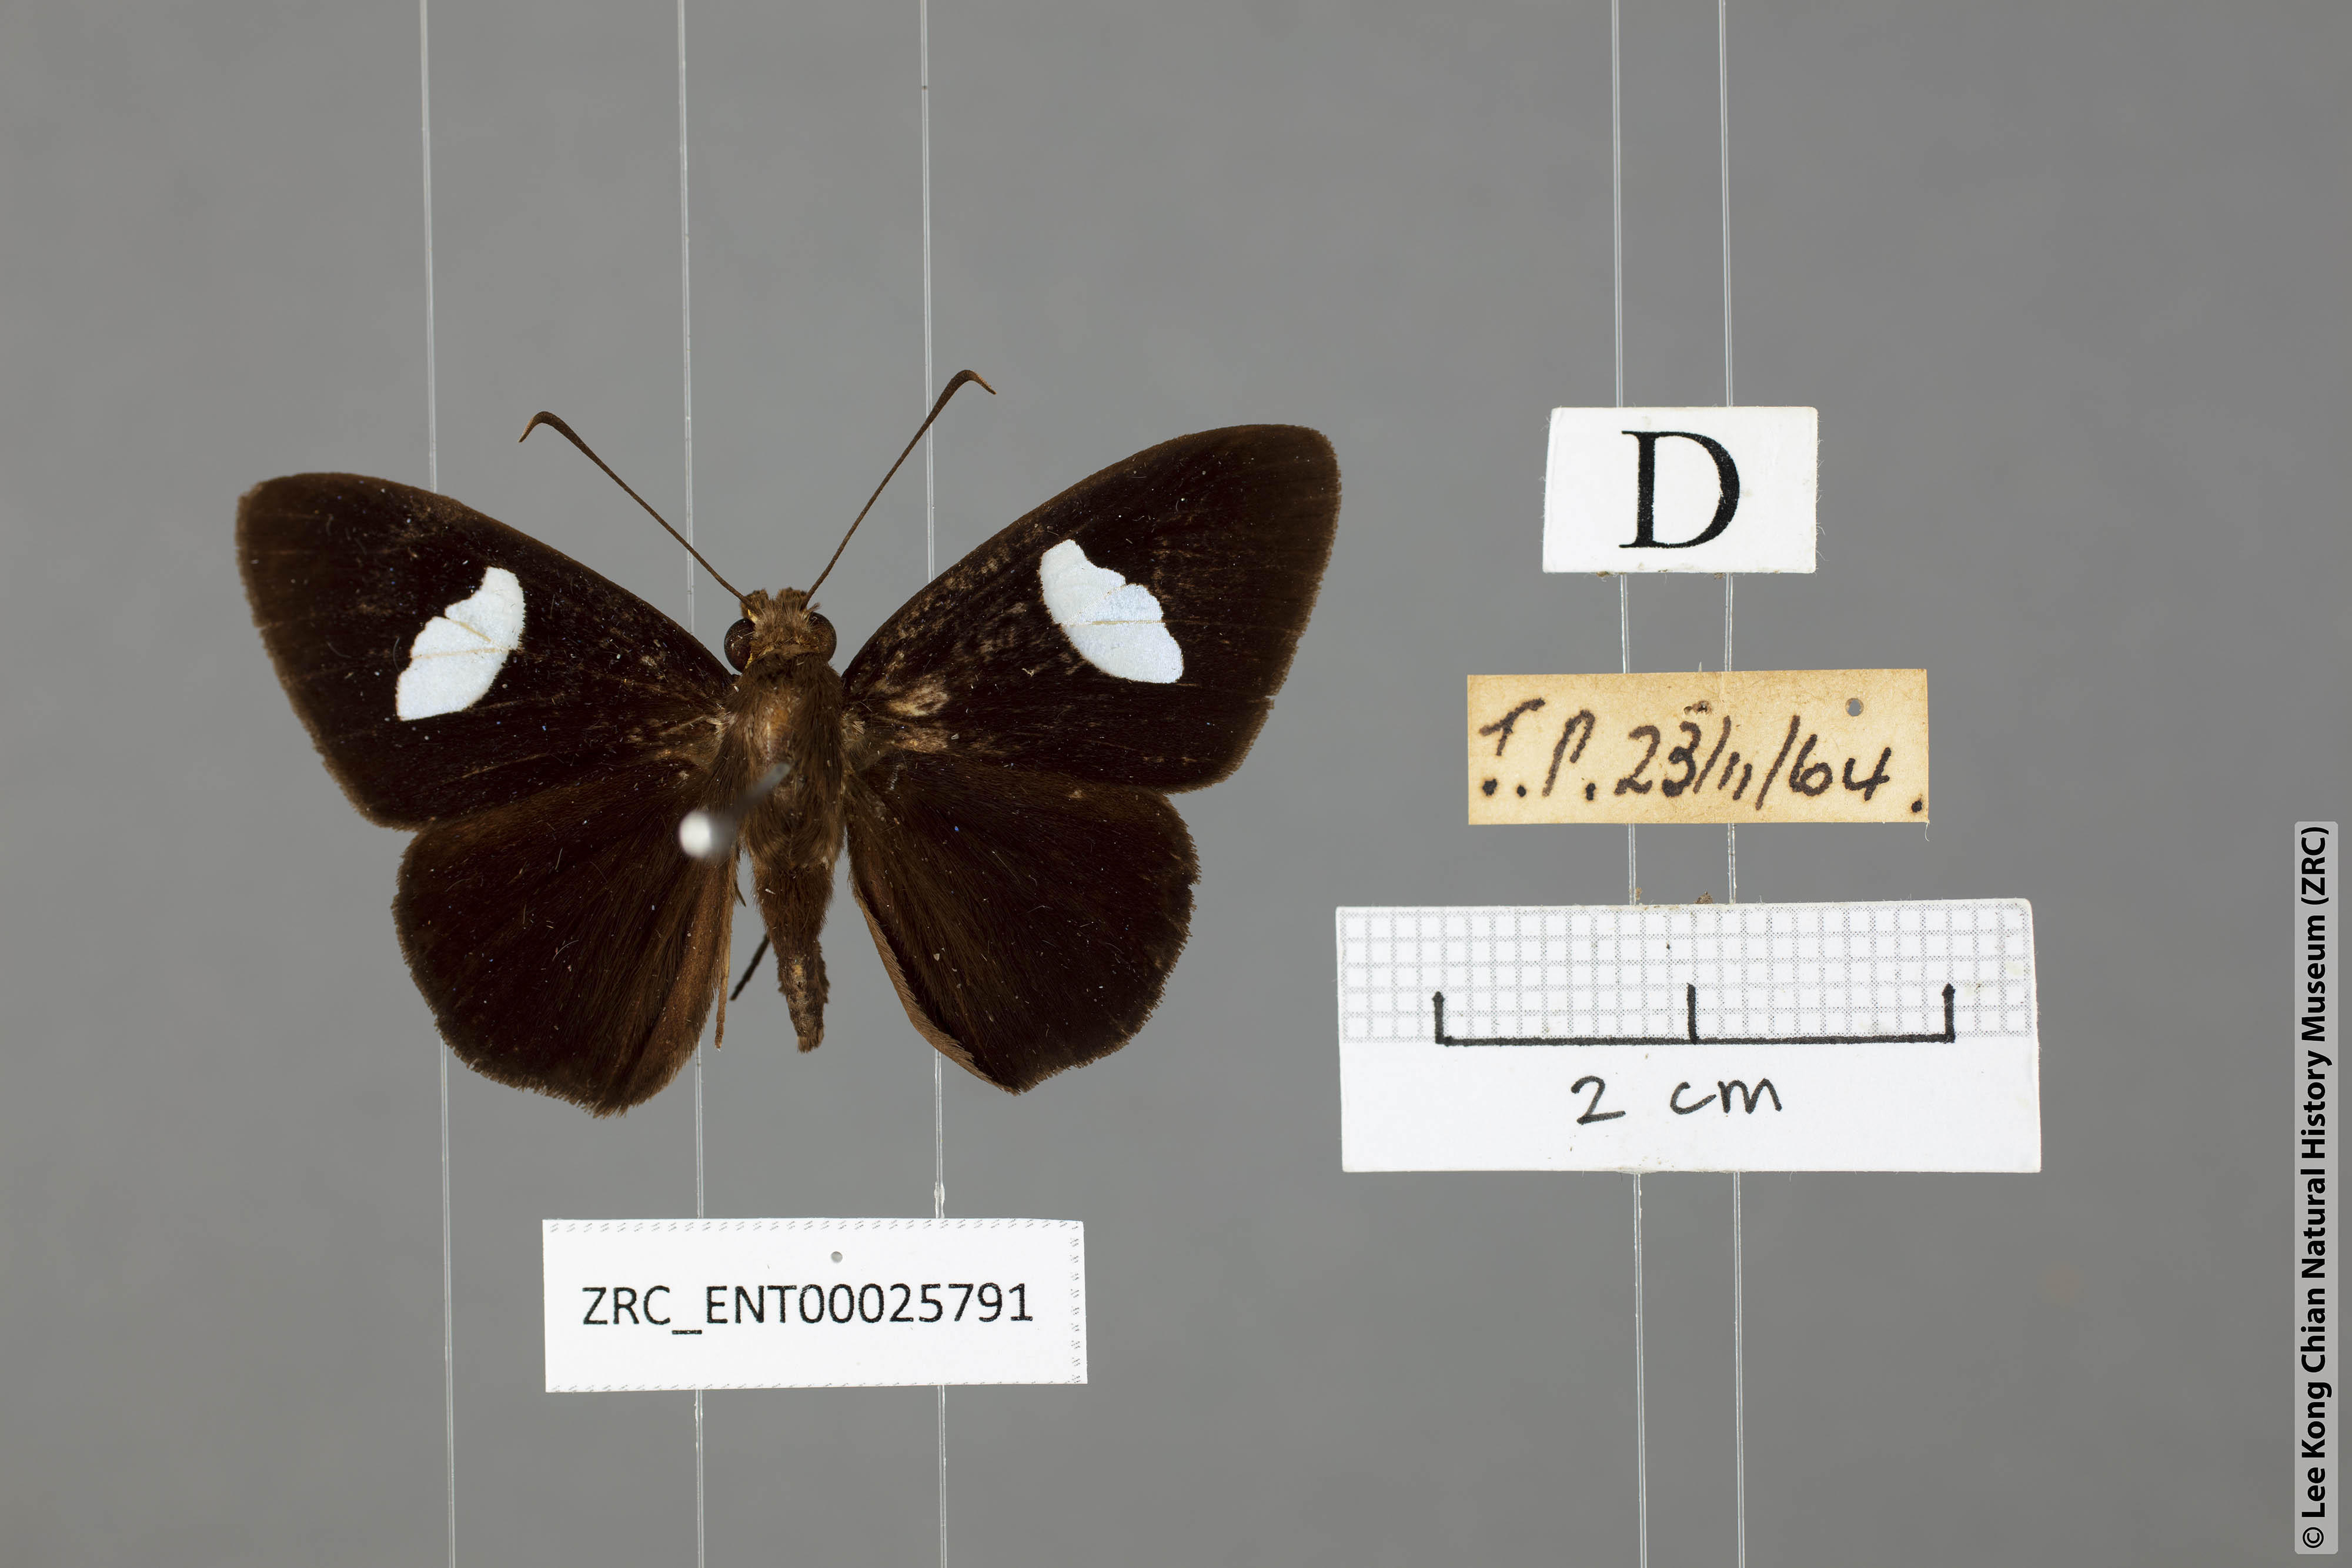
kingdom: Animalia
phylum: Arthropoda
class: Insecta
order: Lepidoptera
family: Hesperiidae
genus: Celaenorrhinus
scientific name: Celaenorrhinus ficulnea
